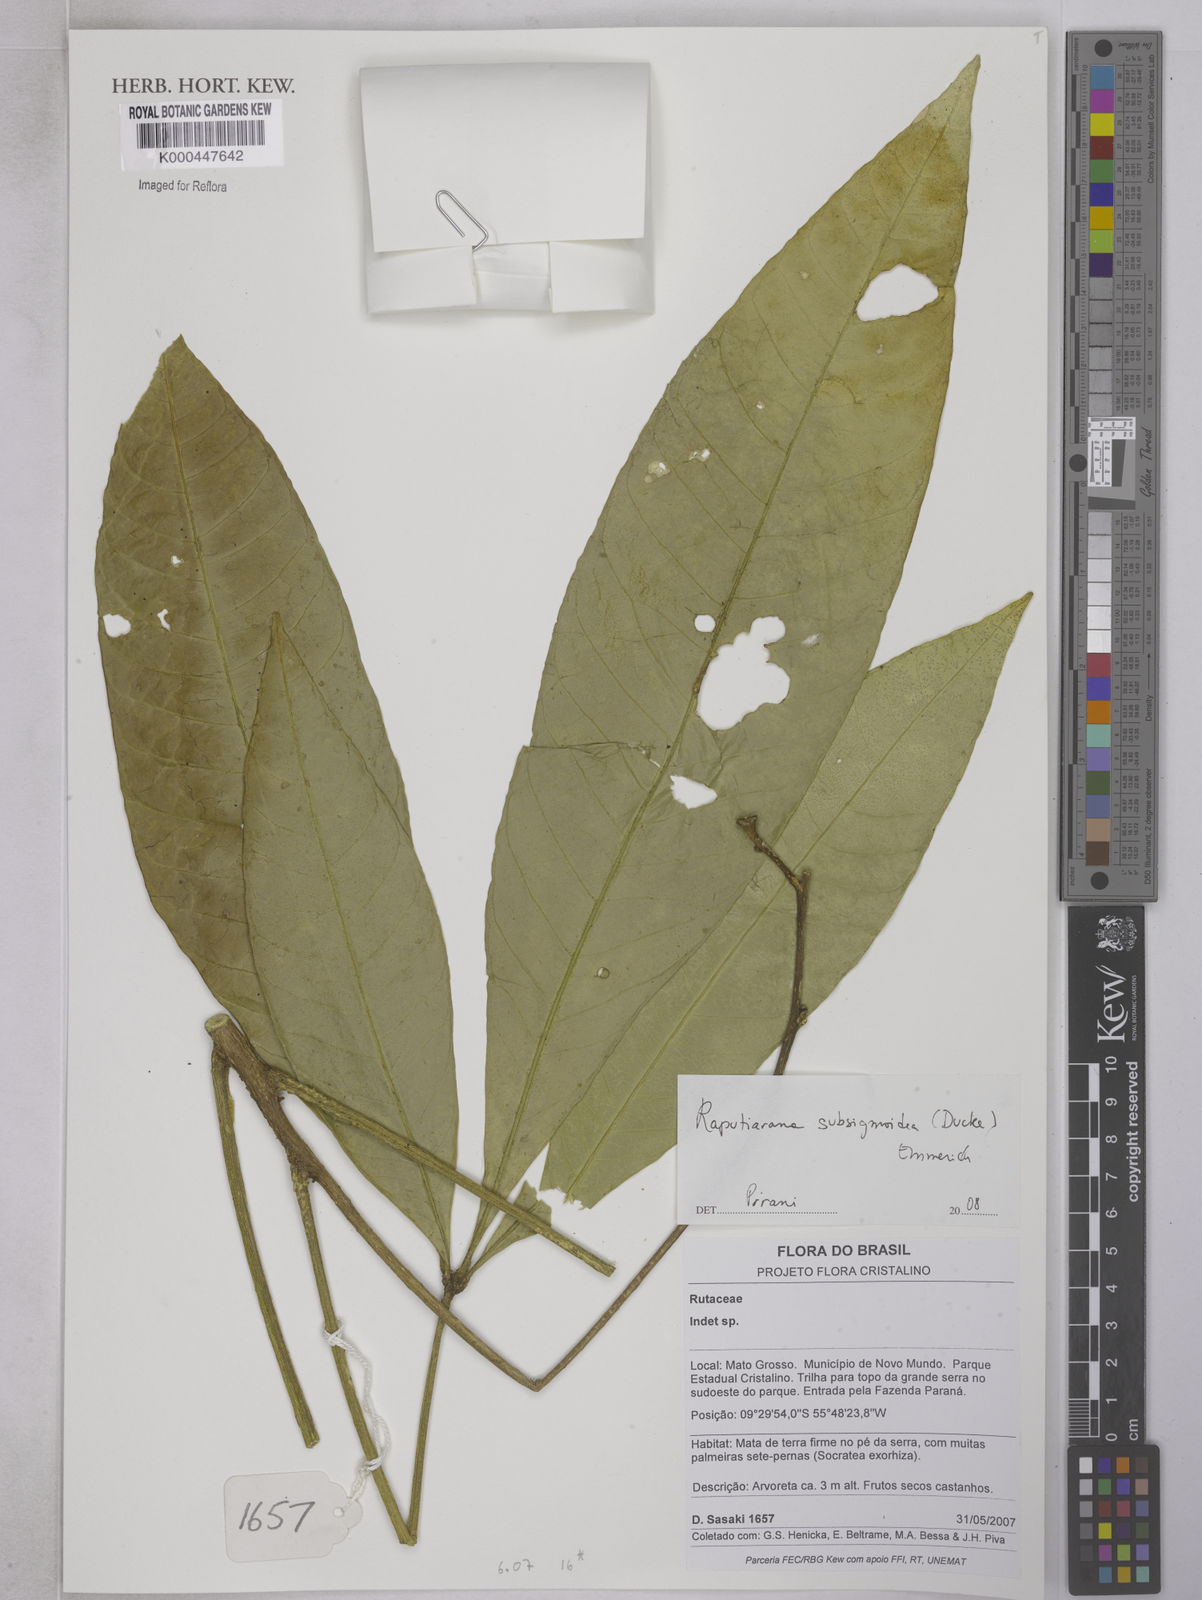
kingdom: Plantae
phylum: Tracheophyta
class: Magnoliopsida
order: Sapindales
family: Rutaceae
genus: Raputiarana
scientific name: Raputiarana subsigmoidea
